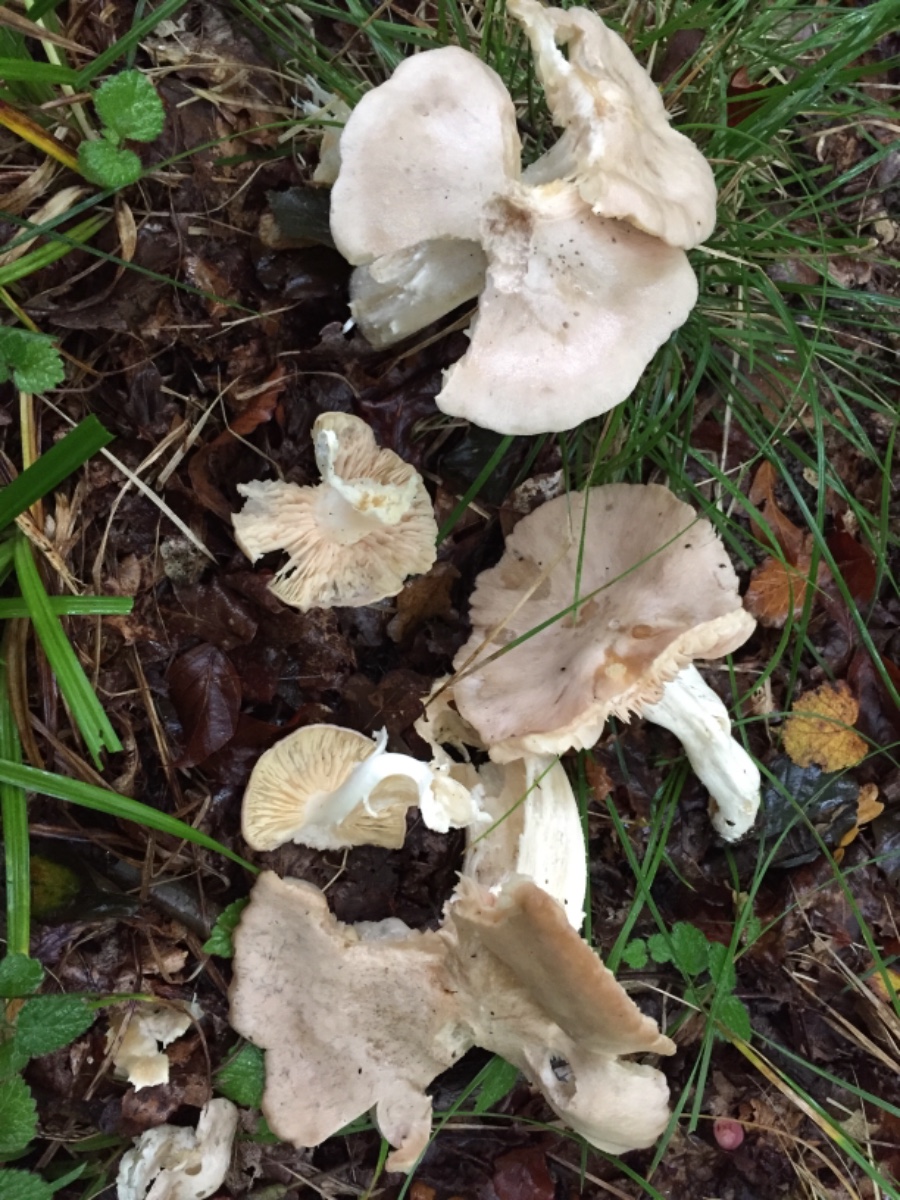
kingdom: Fungi
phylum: Basidiomycota
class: Agaricomycetes
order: Agaricales
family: Entolomataceae
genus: Entoloma
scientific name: Entoloma sinuatum
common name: giftig rødblad
